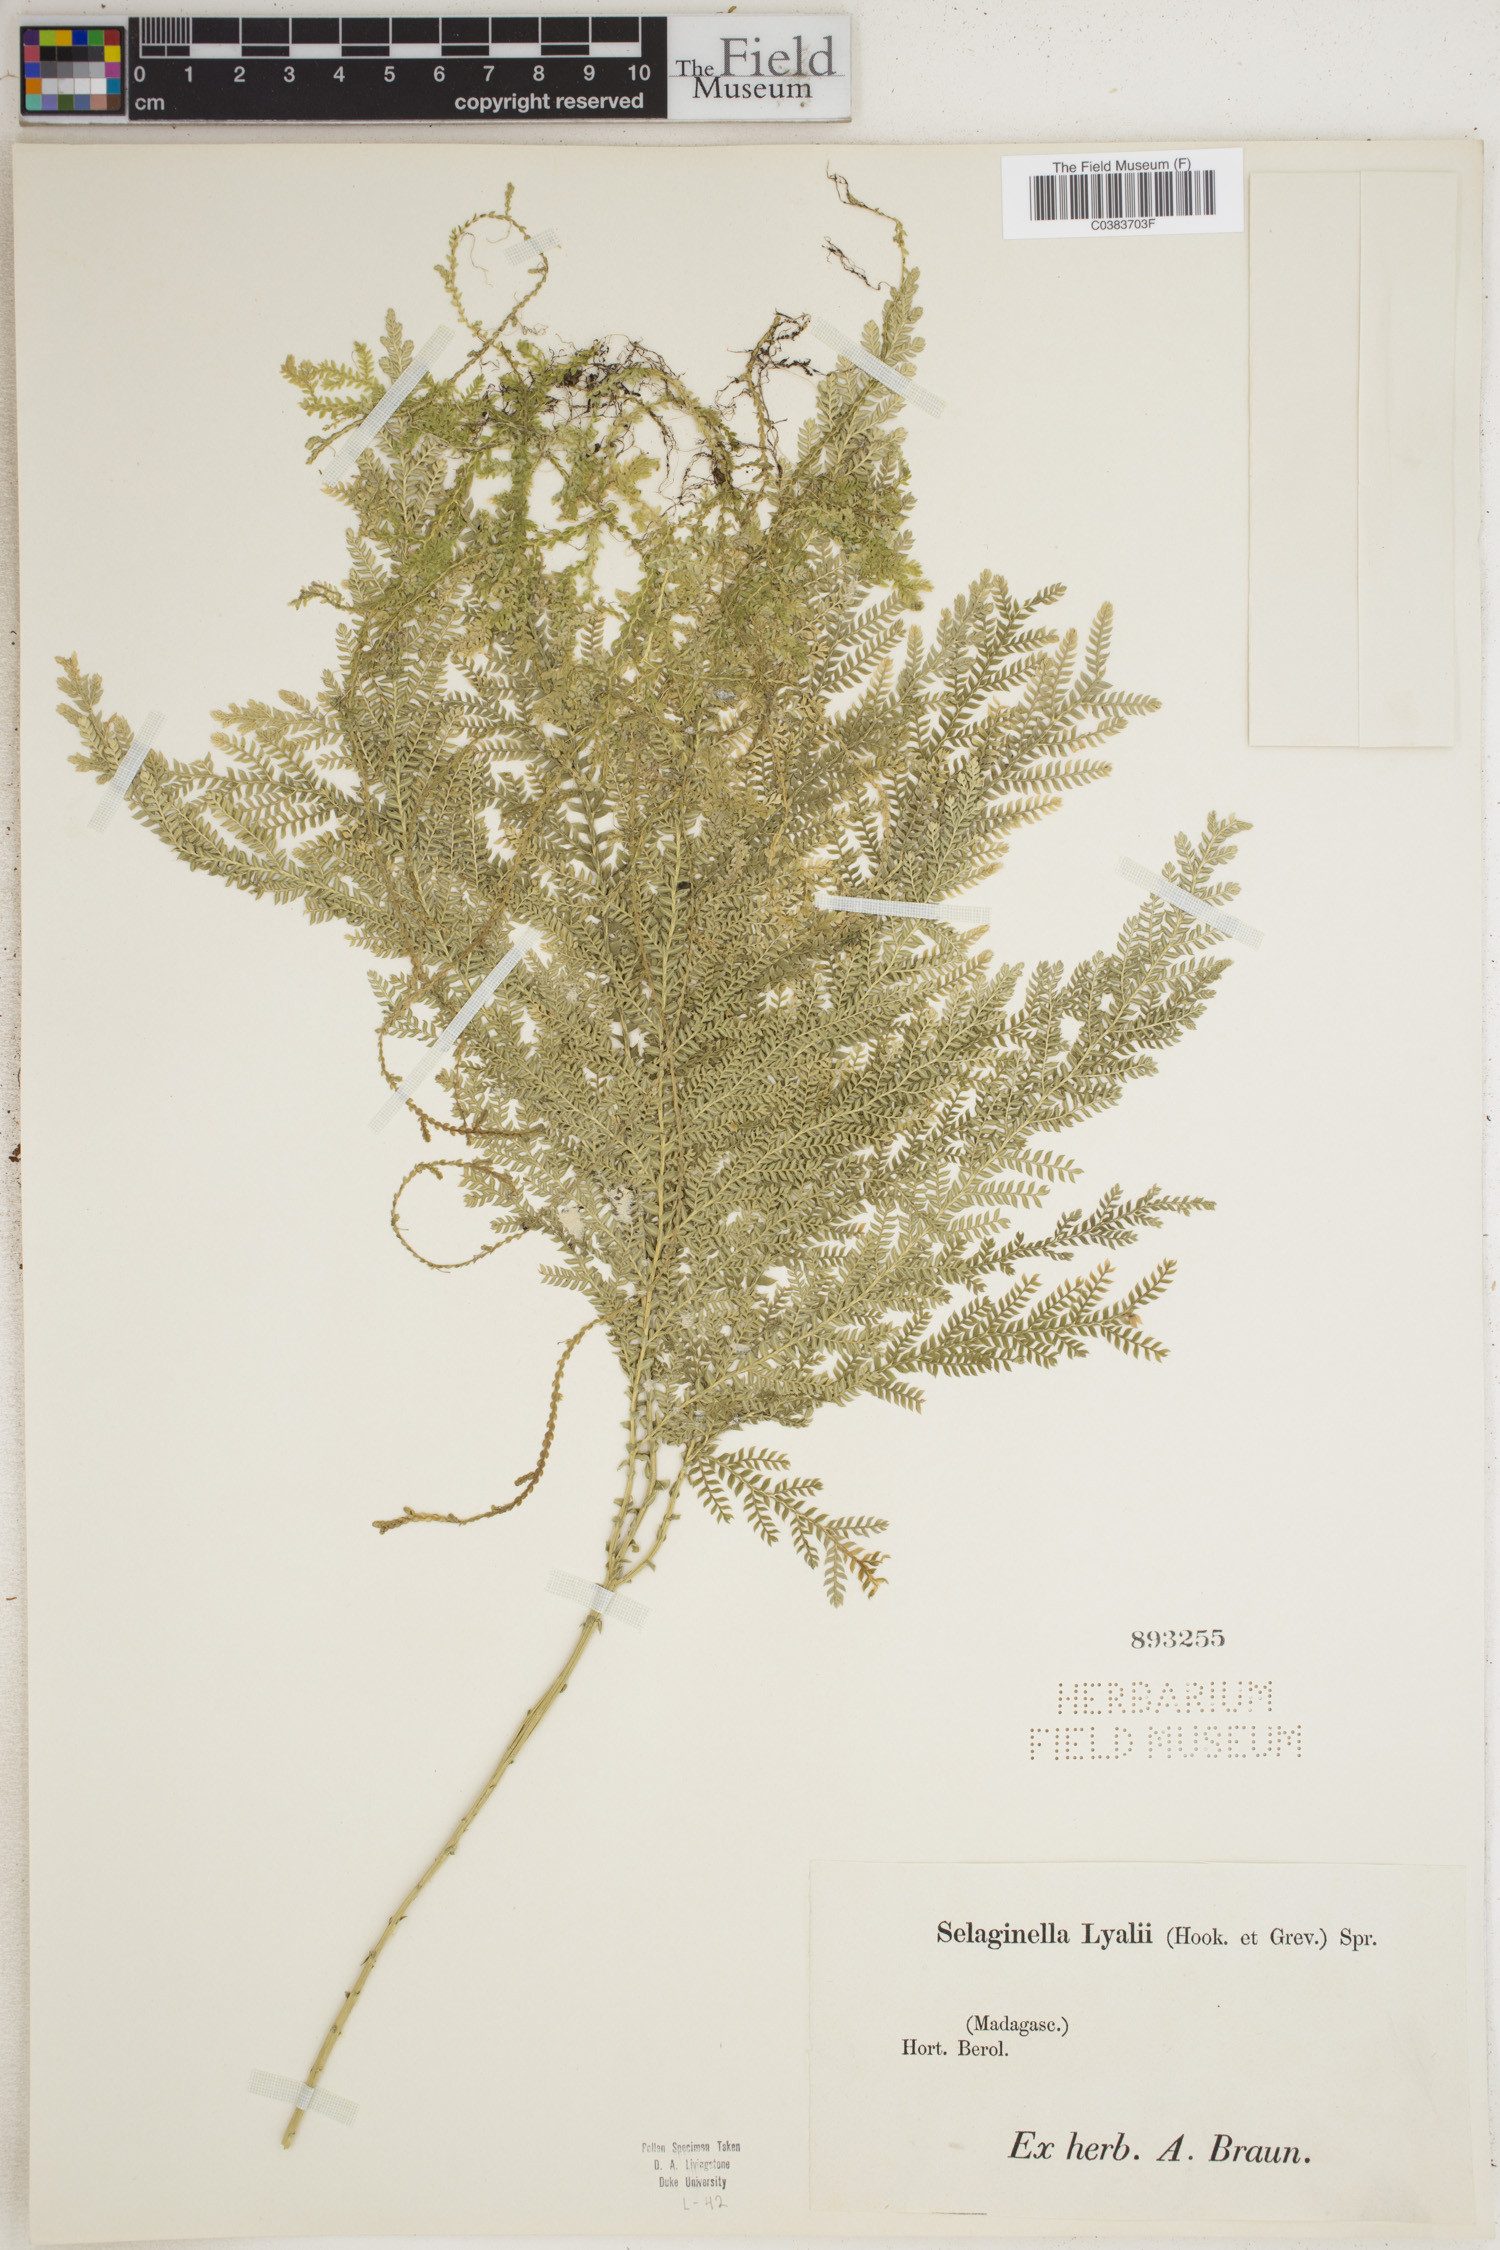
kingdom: Plantae
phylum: Tracheophyta
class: Lycopodiopsida
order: Selaginellales
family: Selaginellaceae
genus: Selaginella
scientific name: Selaginella lyallii
